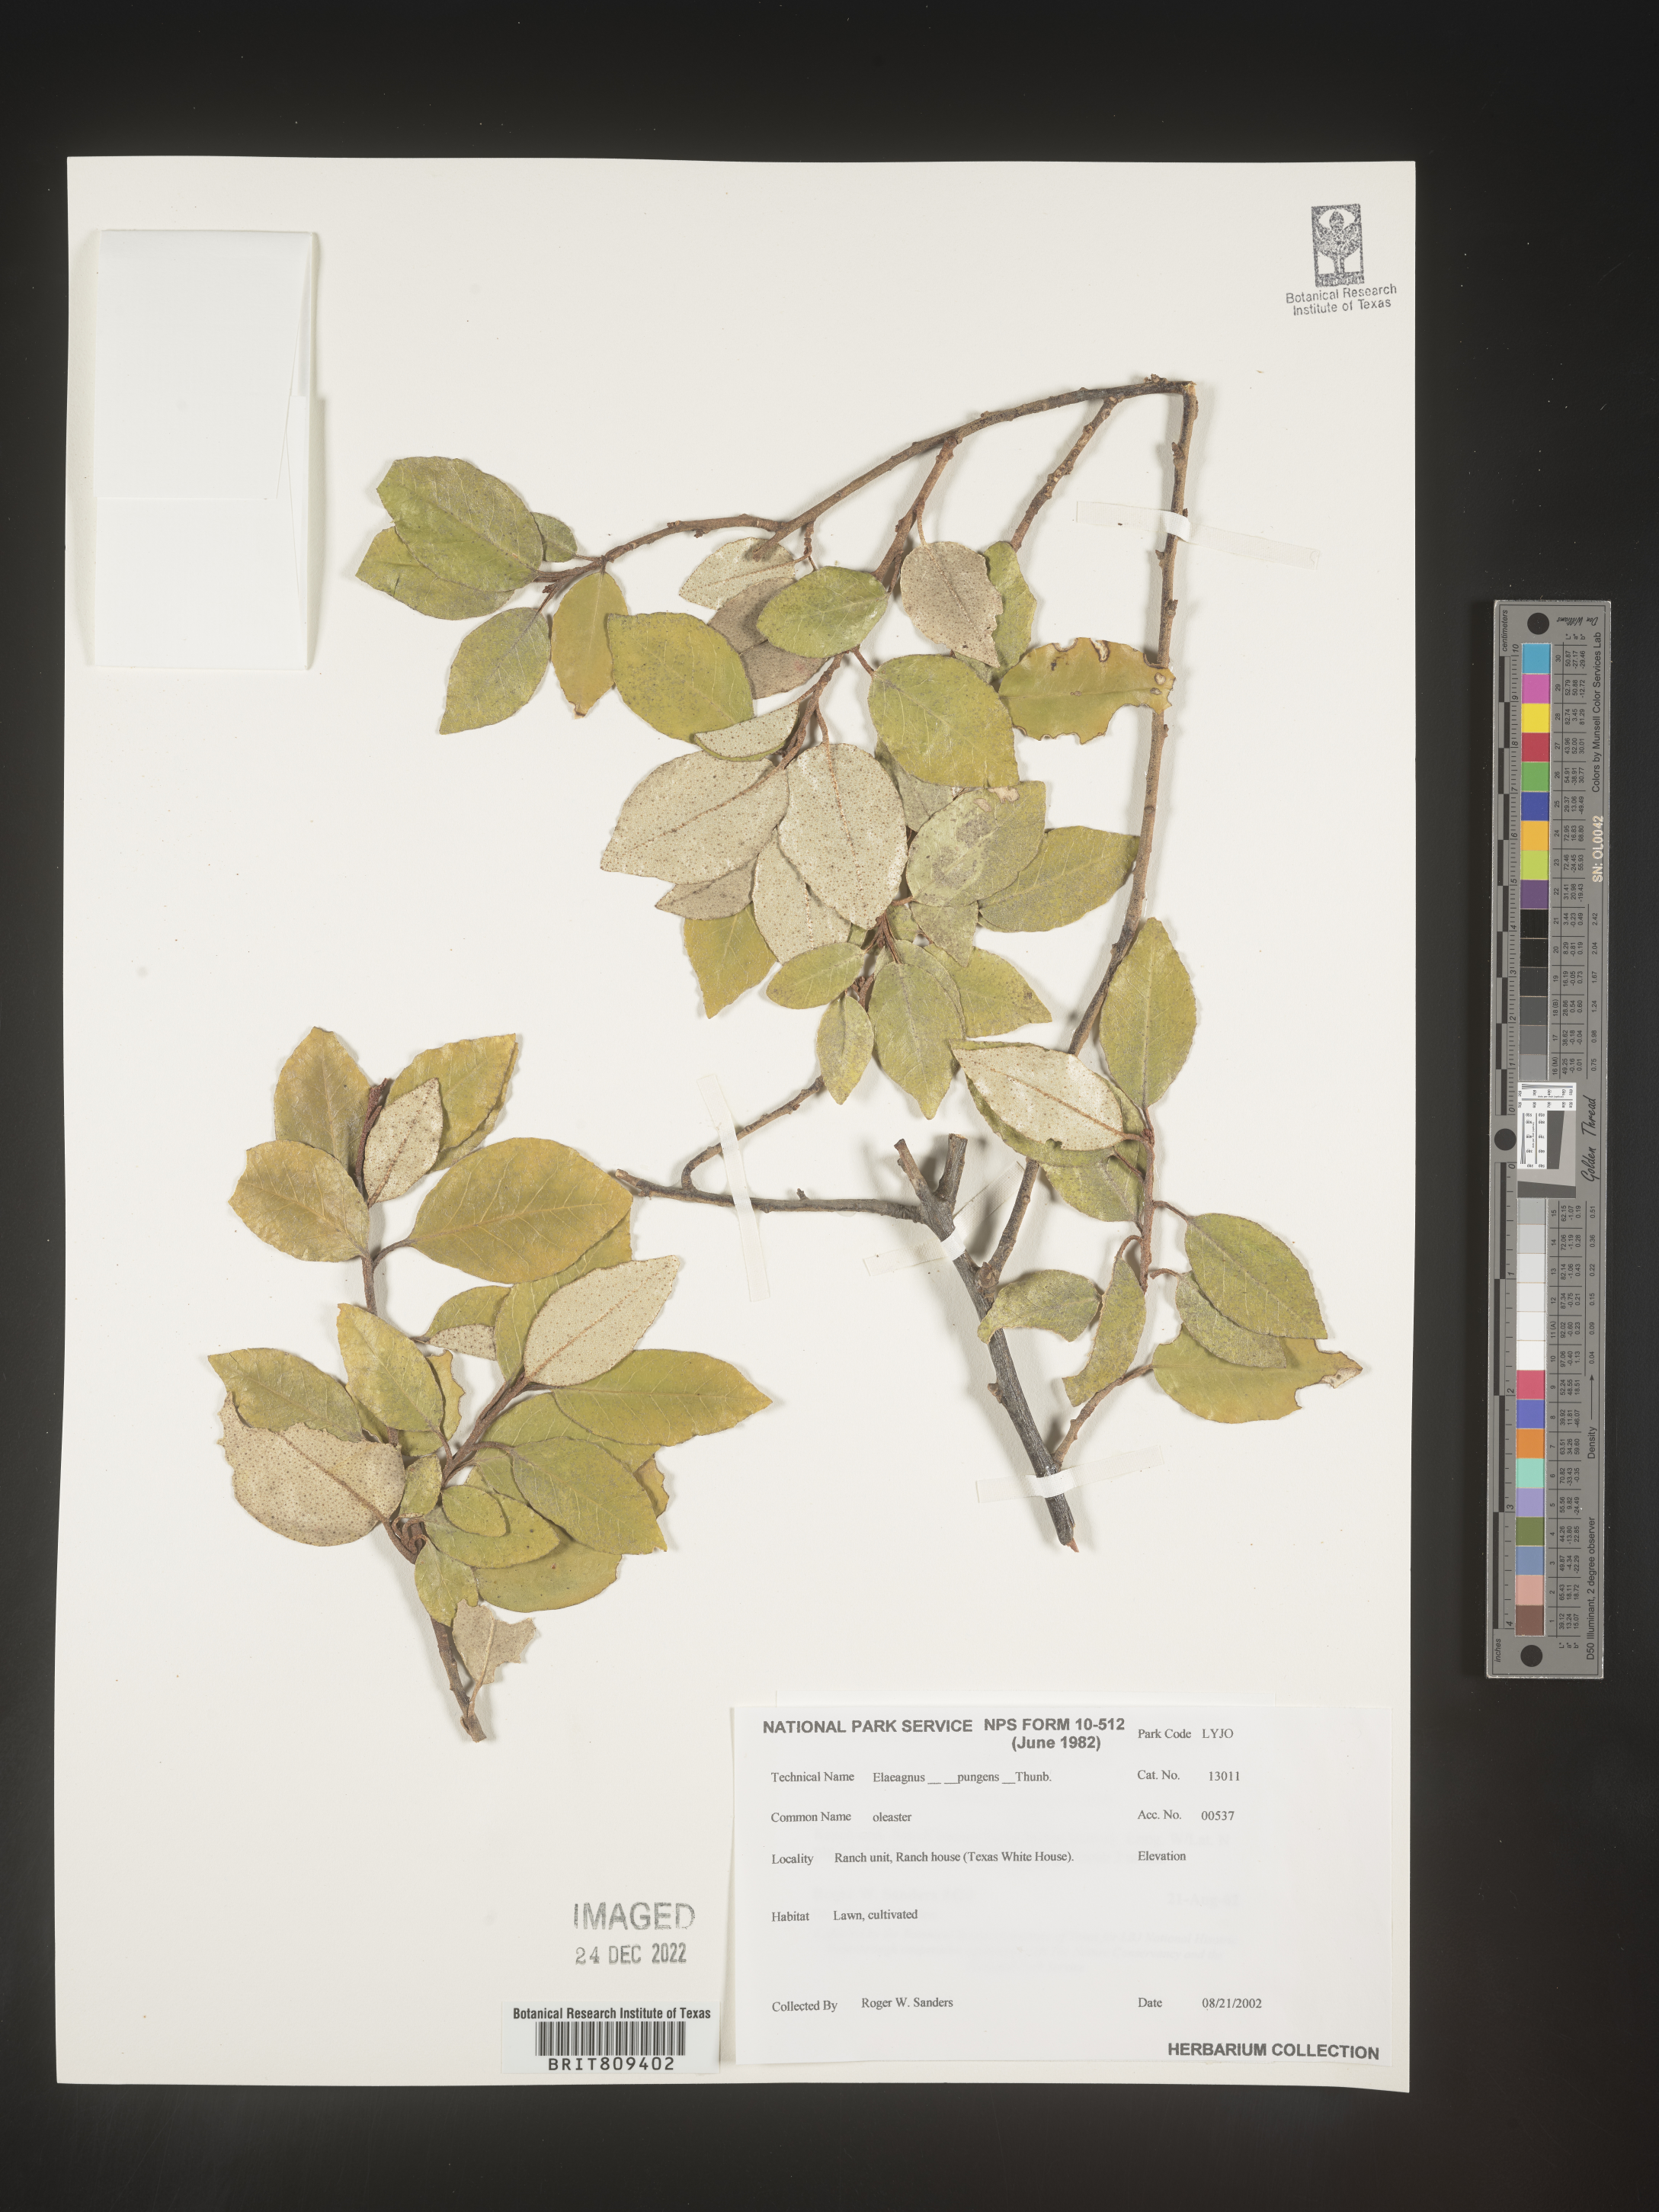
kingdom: Plantae
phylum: Tracheophyta
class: Magnoliopsida
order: Rosales
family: Elaeagnaceae
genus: Elaeagnus
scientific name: Elaeagnus
